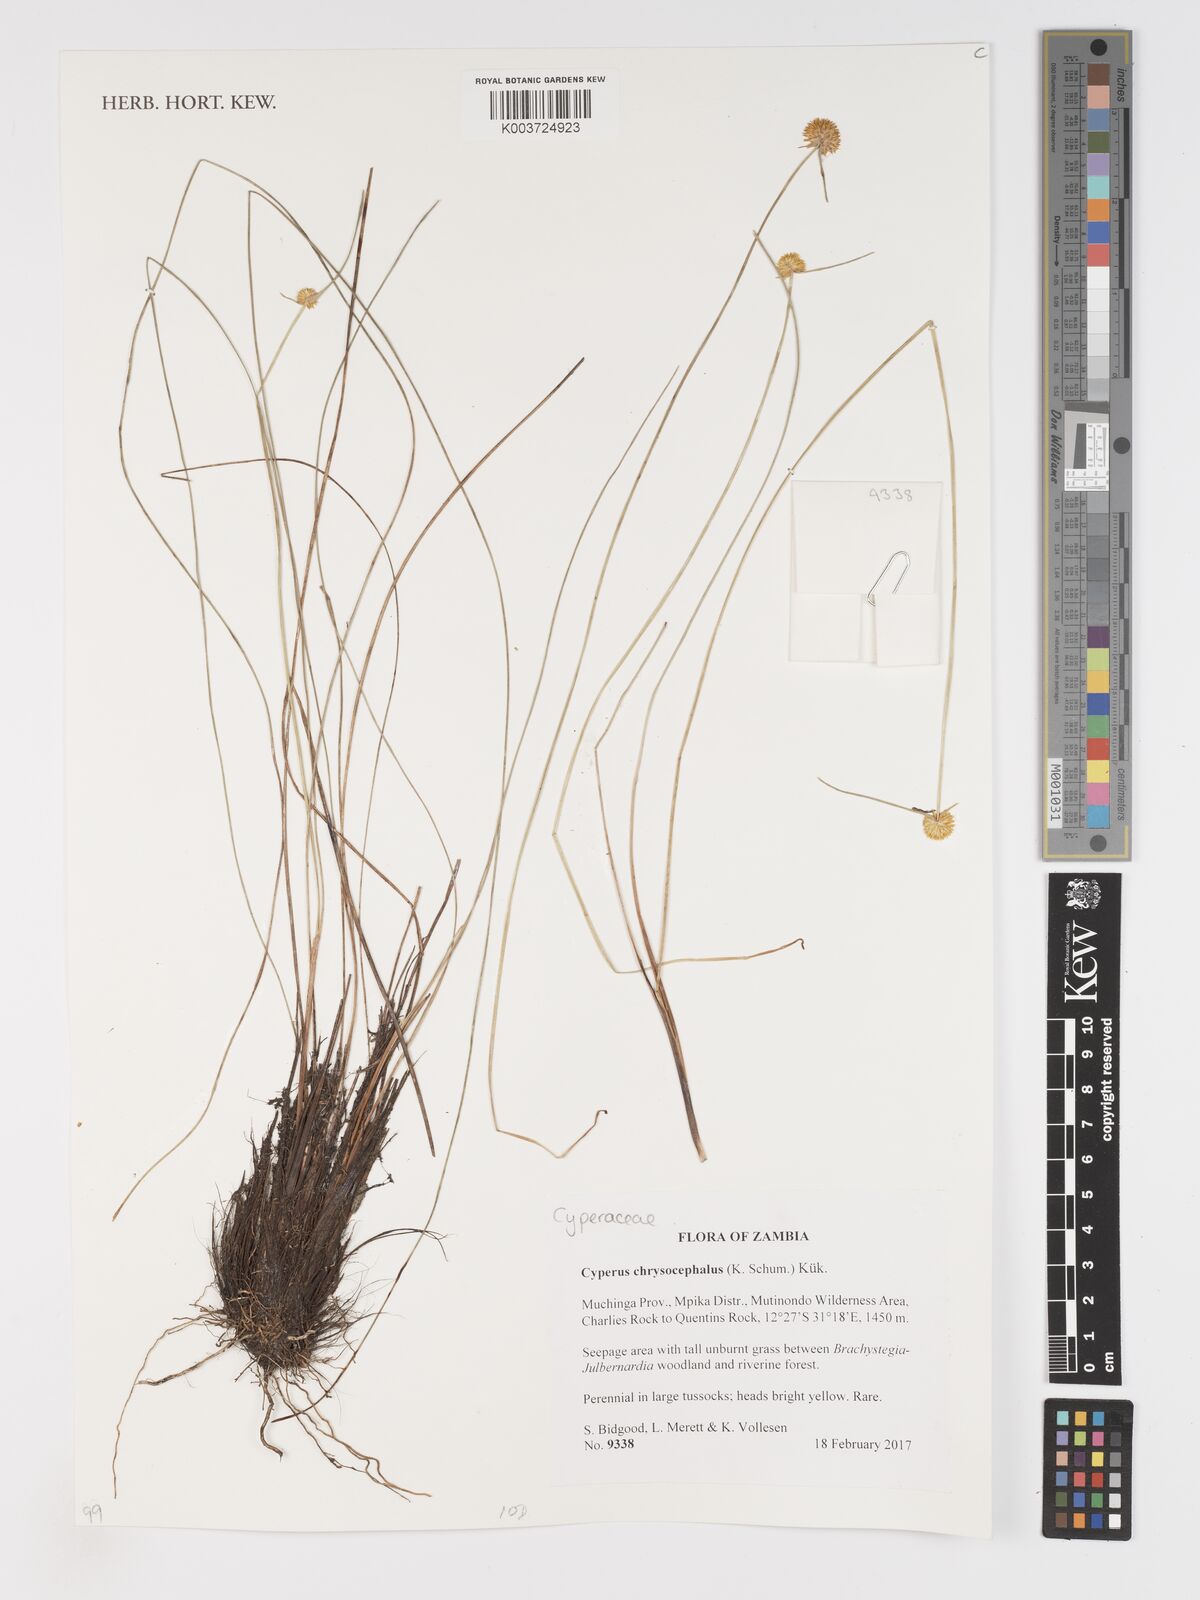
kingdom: Plantae
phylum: Tracheophyta
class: Liliopsida
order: Poales
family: Cyperaceae
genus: Cyperus
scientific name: Cyperus chrysocephalus
